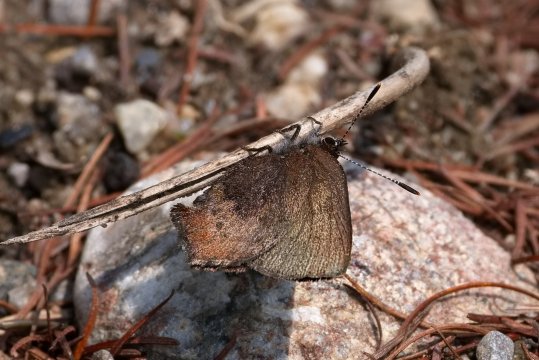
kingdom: Animalia
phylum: Arthropoda
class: Insecta
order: Lepidoptera
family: Lycaenidae
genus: Incisalia
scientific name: Incisalia irioides
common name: Brown Elfin
